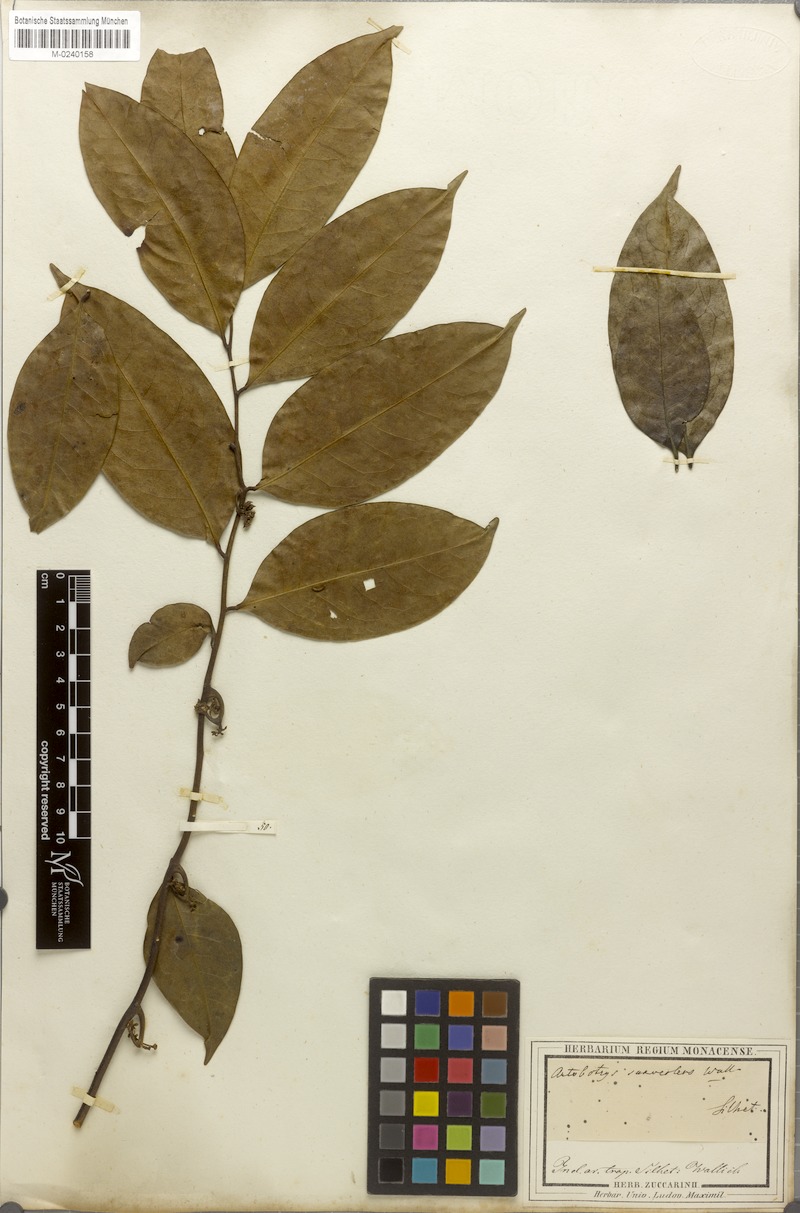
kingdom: Plantae
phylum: Tracheophyta
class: Magnoliopsida
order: Magnoliales
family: Annonaceae
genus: Artabotrys
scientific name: Artabotrys suaveolens
